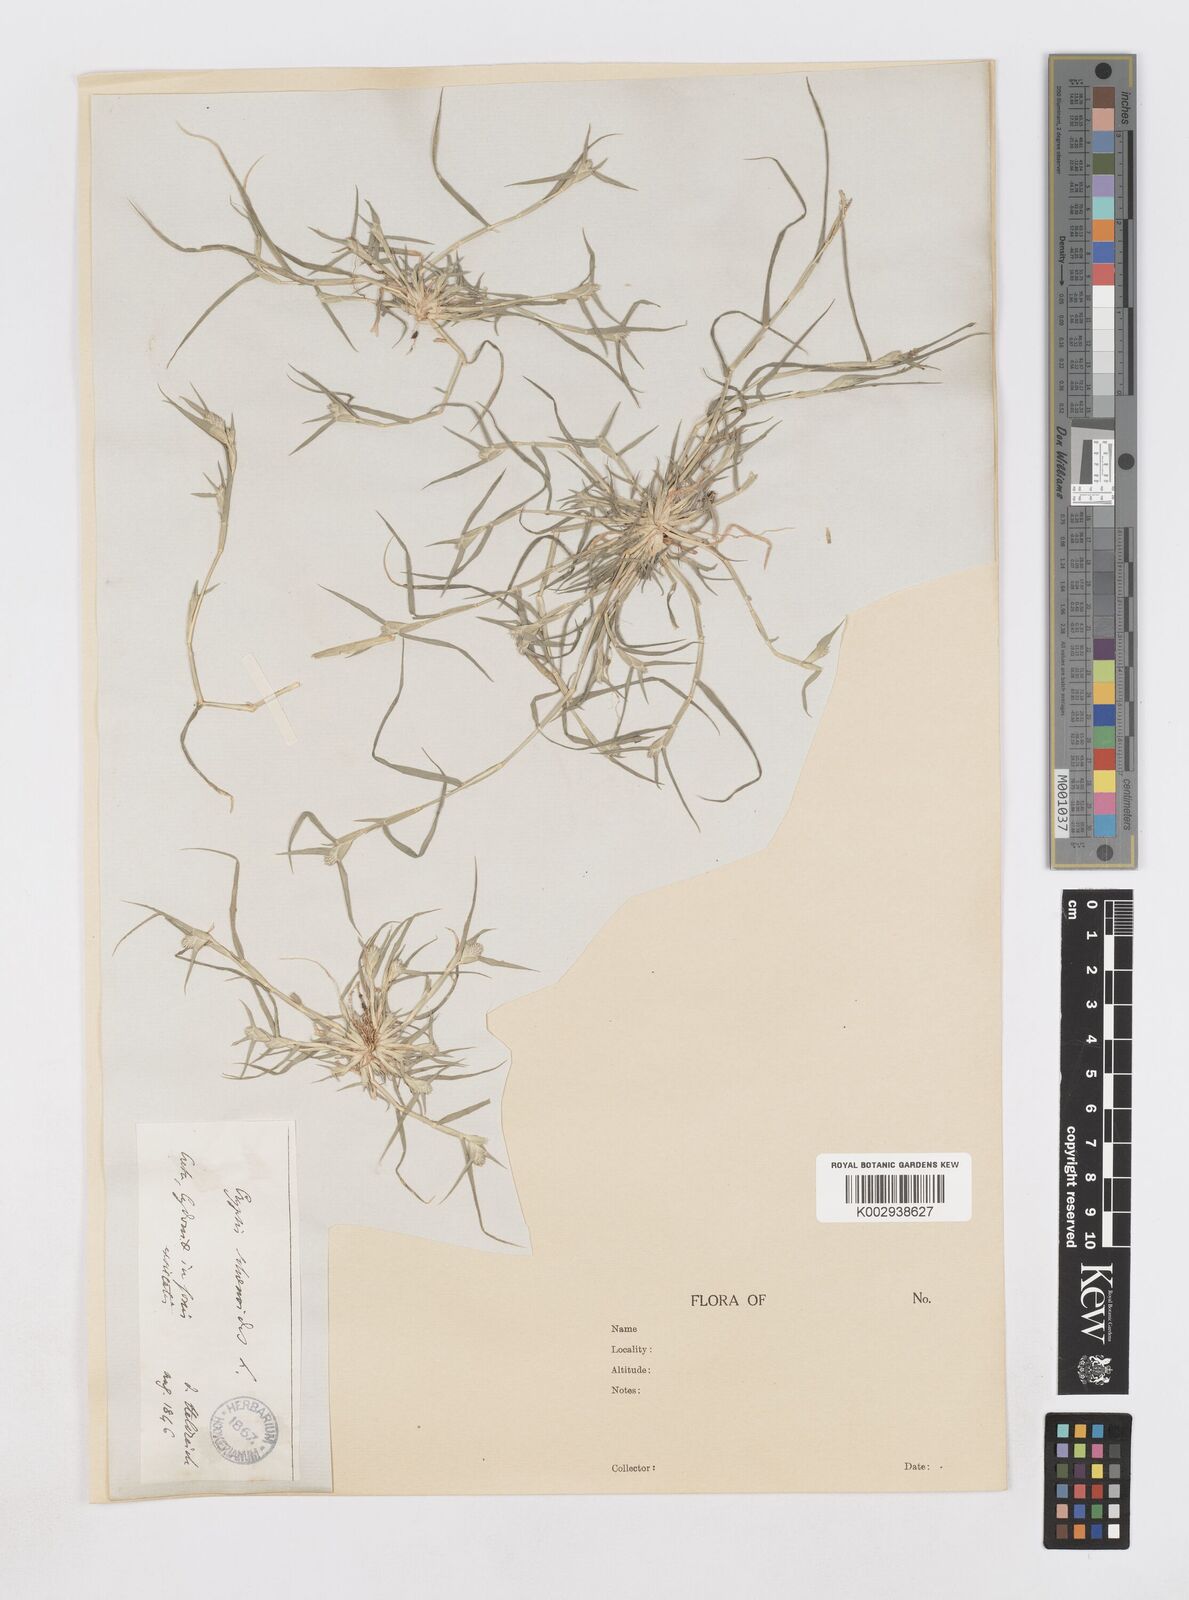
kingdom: Plantae
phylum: Tracheophyta
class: Liliopsida
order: Poales
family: Poaceae
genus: Sporobolus
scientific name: Sporobolus schoenoides
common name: Rush-like timothy
